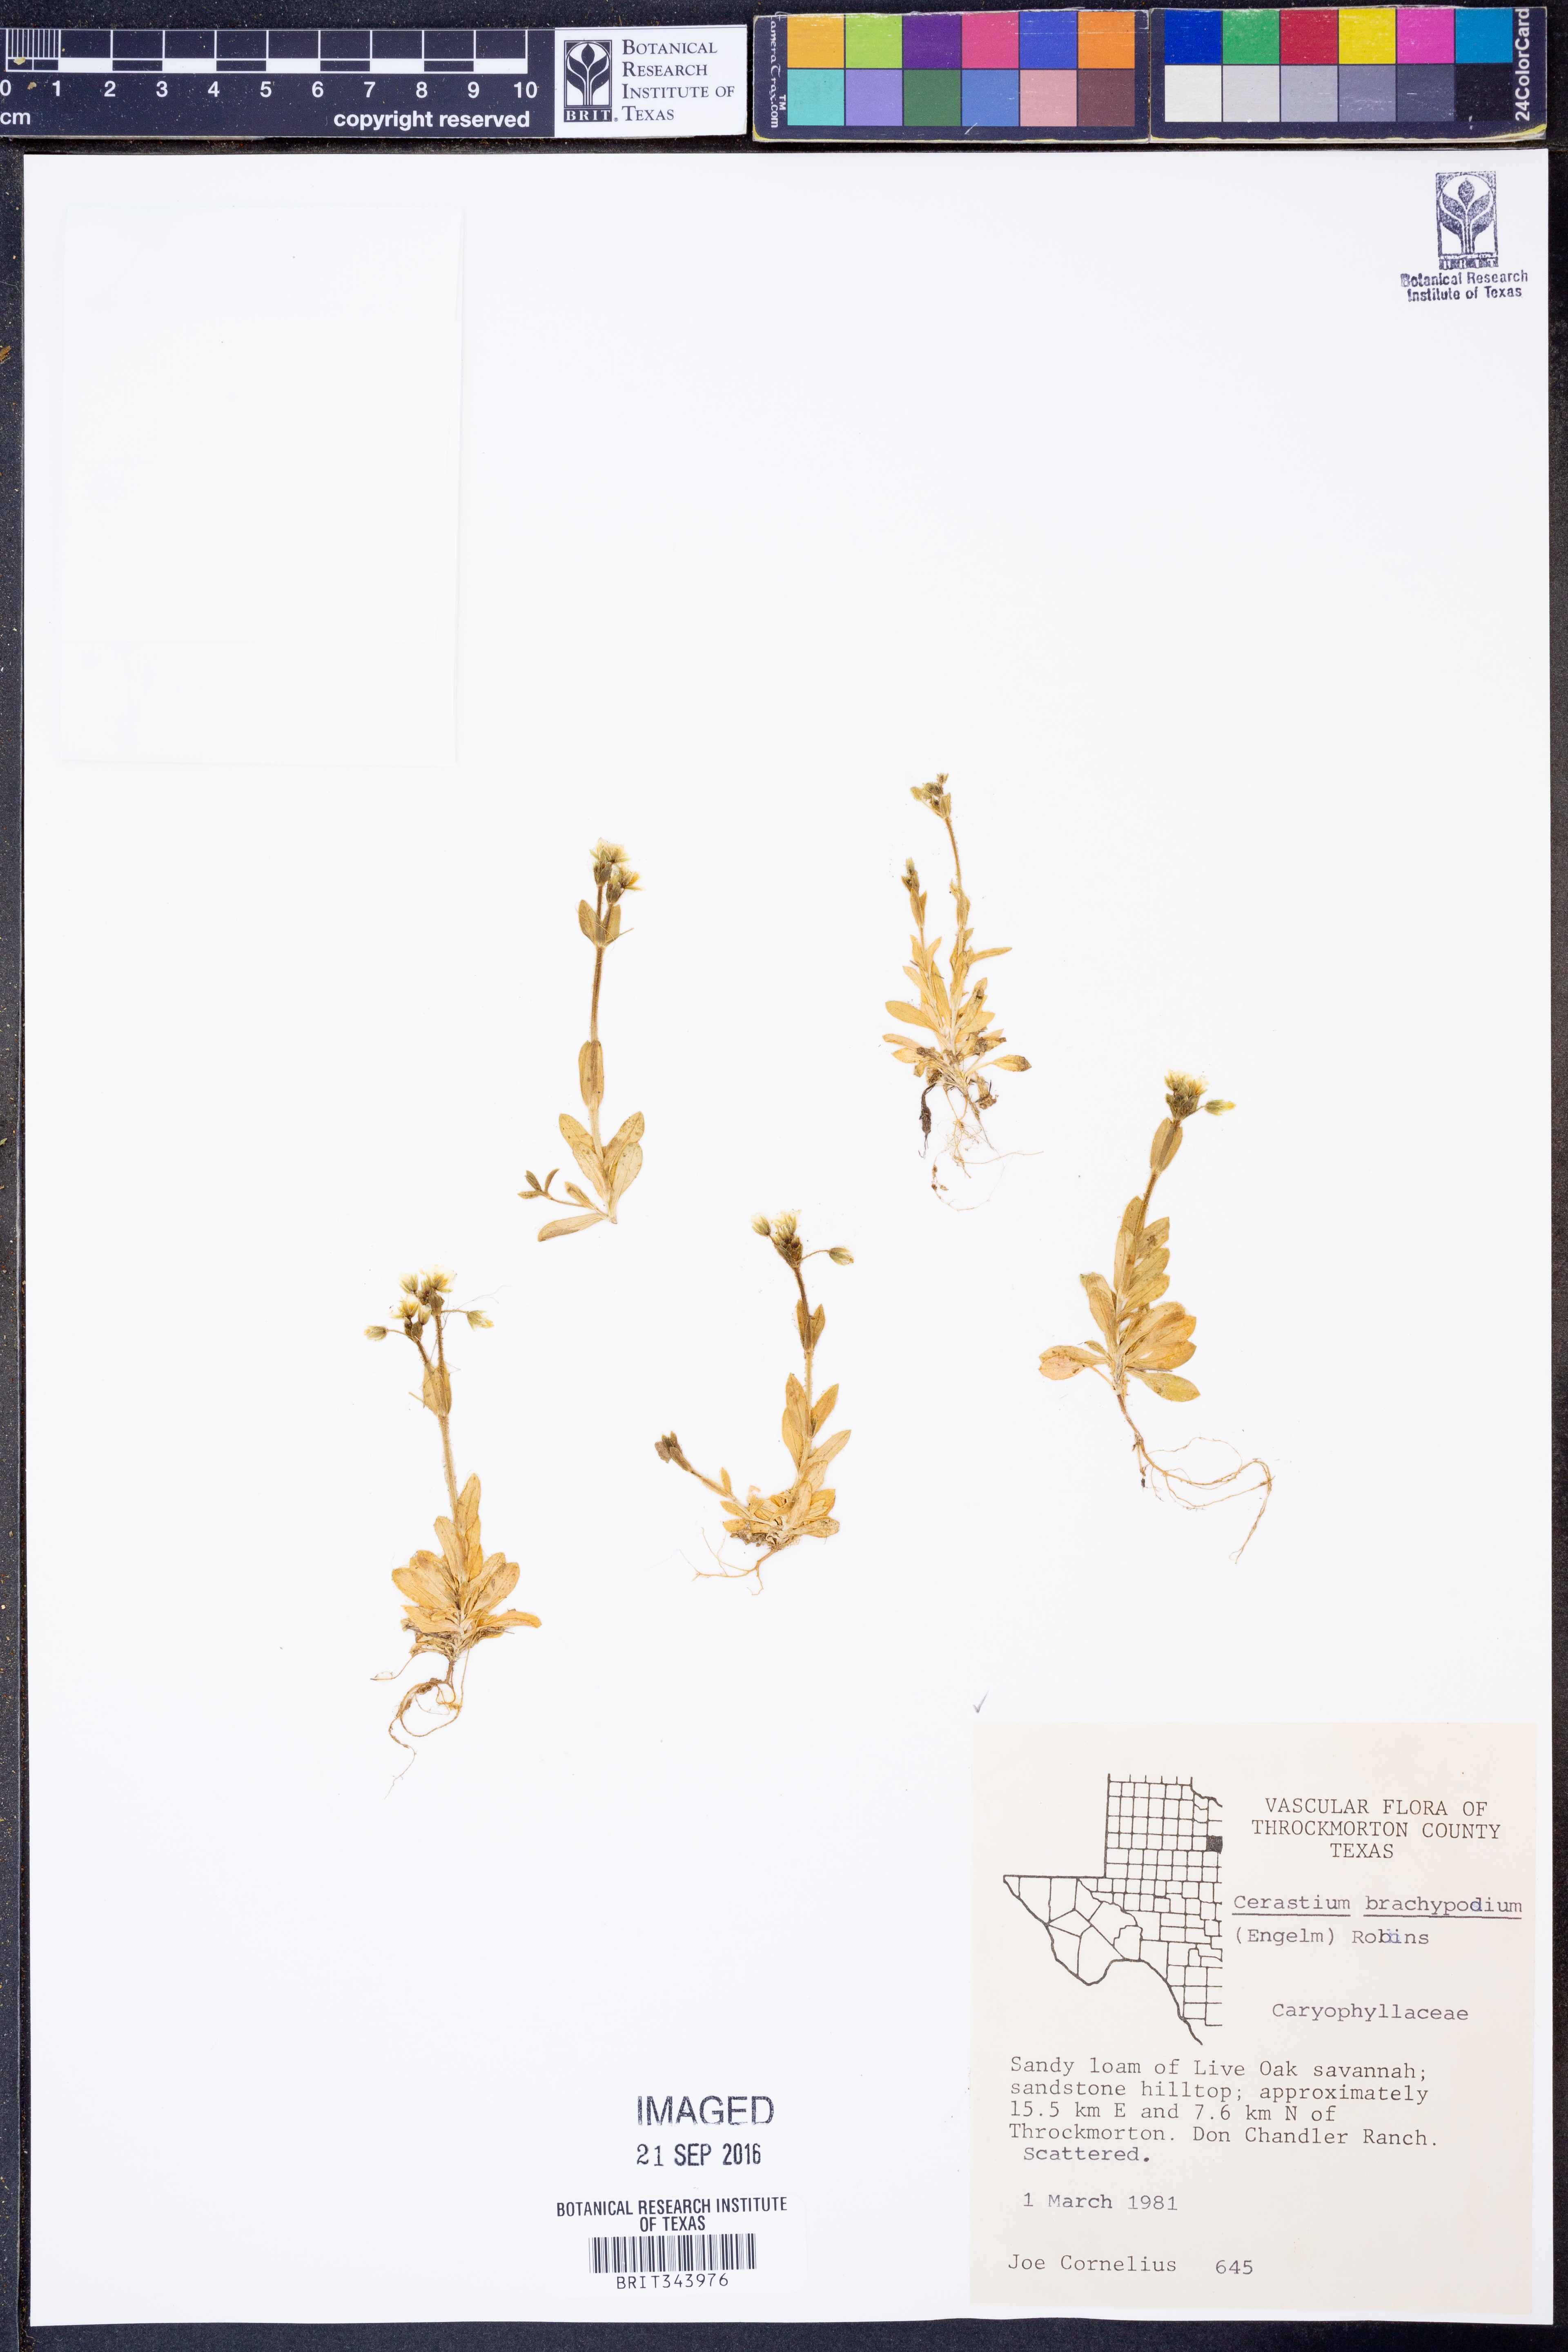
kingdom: Plantae
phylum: Tracheophyta
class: Magnoliopsida
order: Caryophyllales
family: Caryophyllaceae
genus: Cerastium
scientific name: Cerastium brachypodum
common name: Short-pedicelled nodding chickweed
